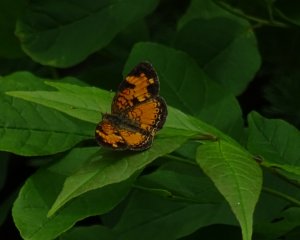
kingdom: Animalia
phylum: Arthropoda
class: Insecta
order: Lepidoptera
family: Nymphalidae
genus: Phyciodes
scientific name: Phyciodes tharos
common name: Northern Crescent
